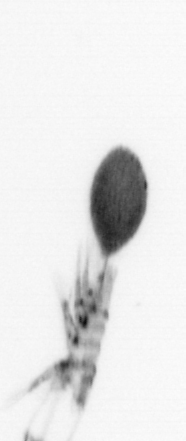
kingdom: Animalia
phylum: Arthropoda
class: Copepoda
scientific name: Copepoda
